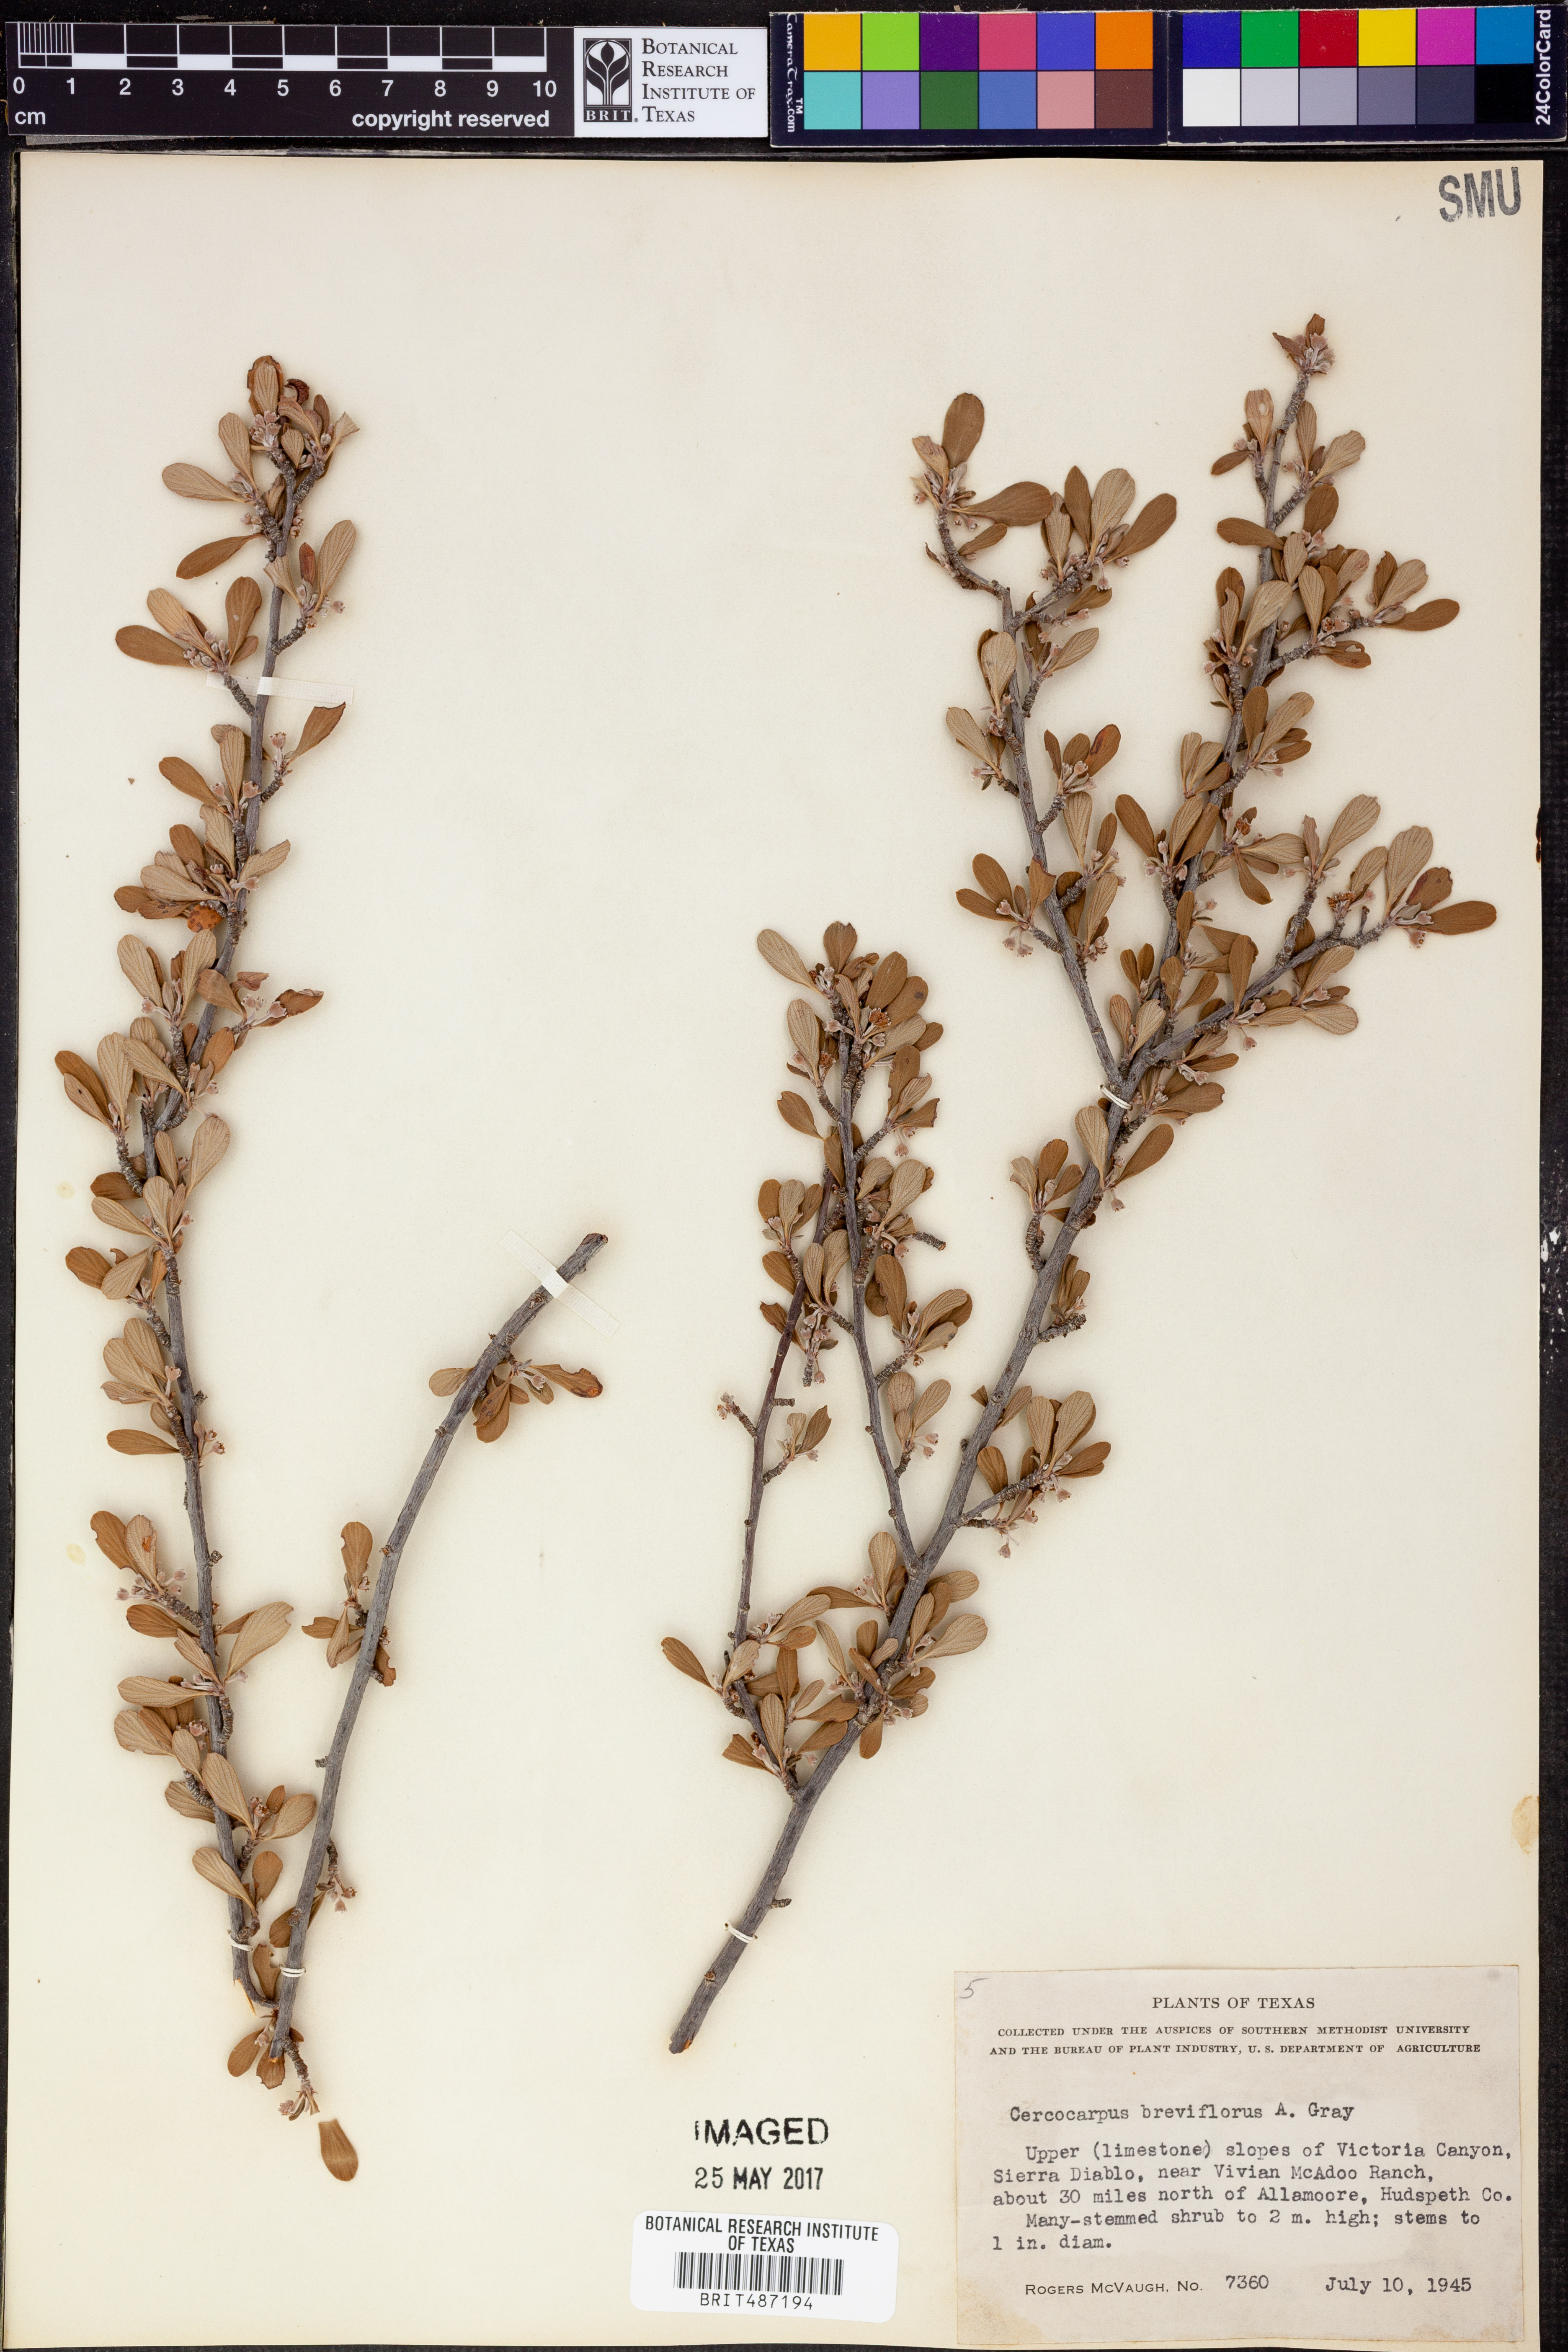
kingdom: Plantae
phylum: Tracheophyta
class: Magnoliopsida
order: Rosales
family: Rosaceae
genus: Cercocarpus
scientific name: Cercocarpus breviflorus
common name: Wright's mountain-mahogany
